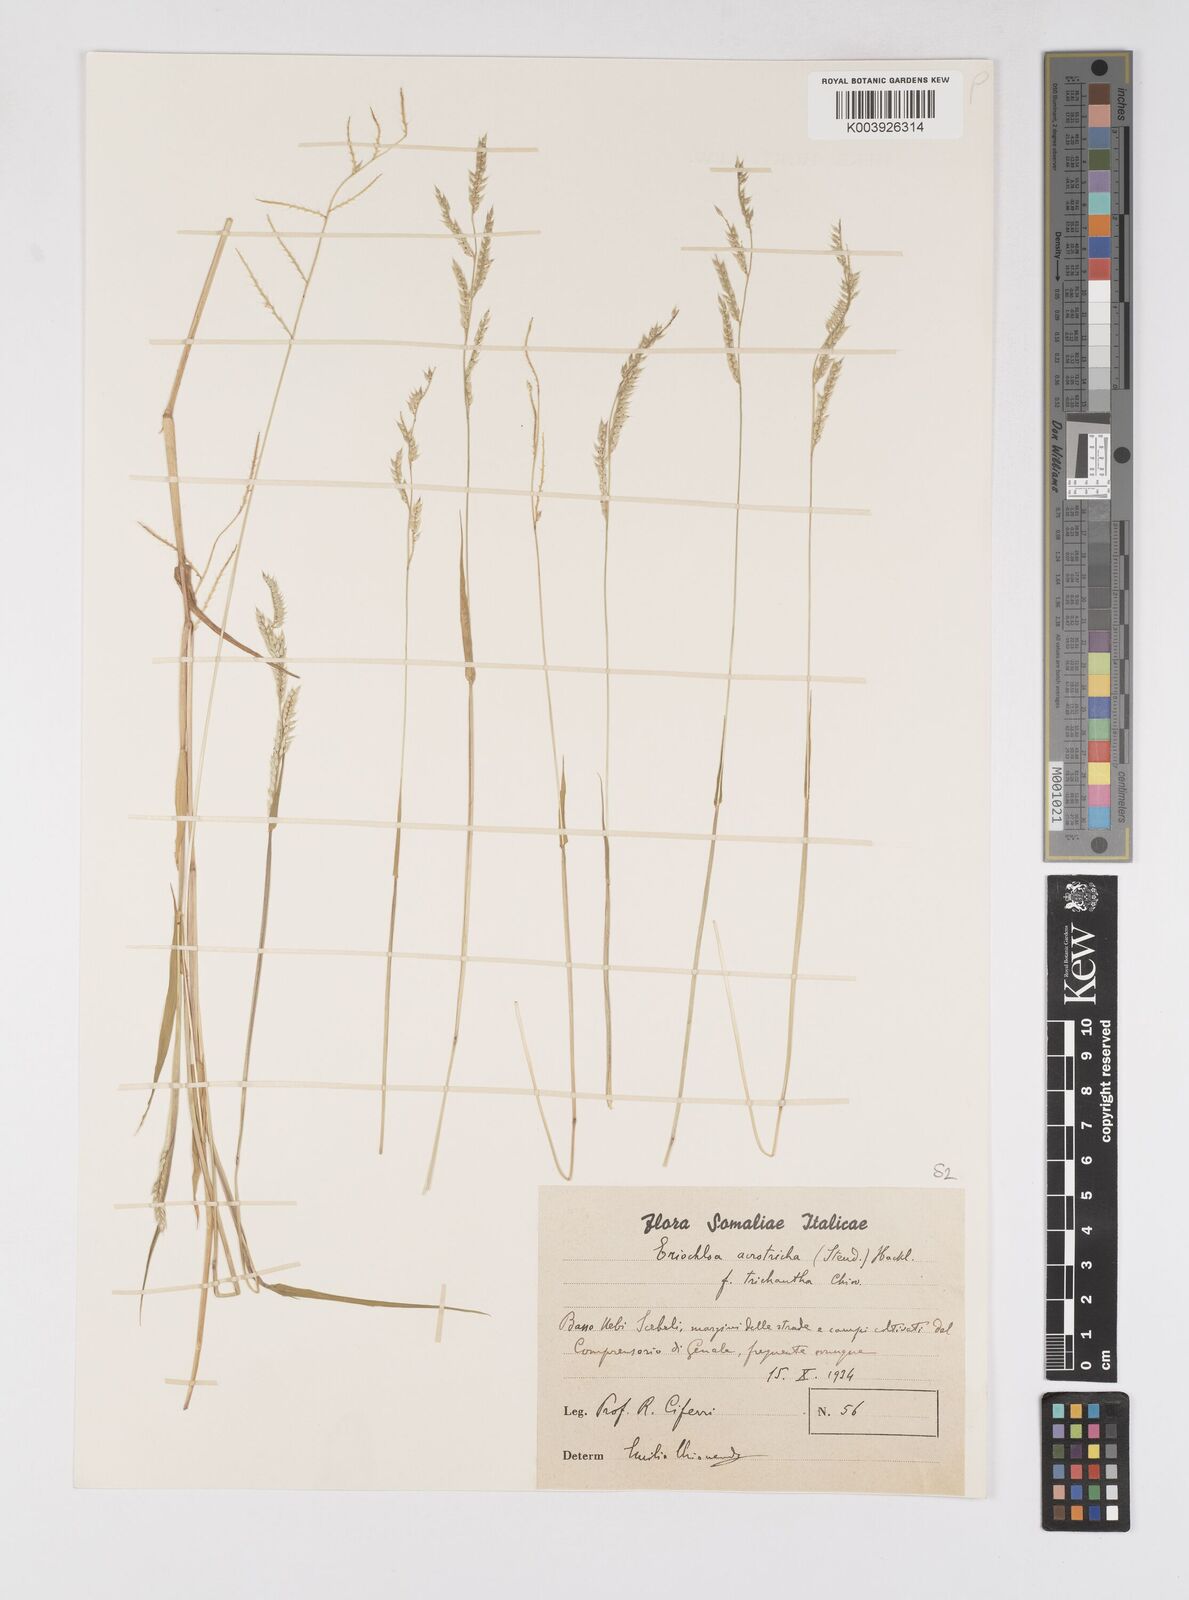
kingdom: Plantae
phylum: Tracheophyta
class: Liliopsida
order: Poales
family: Poaceae
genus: Eriochloa
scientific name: Eriochloa barbatus
